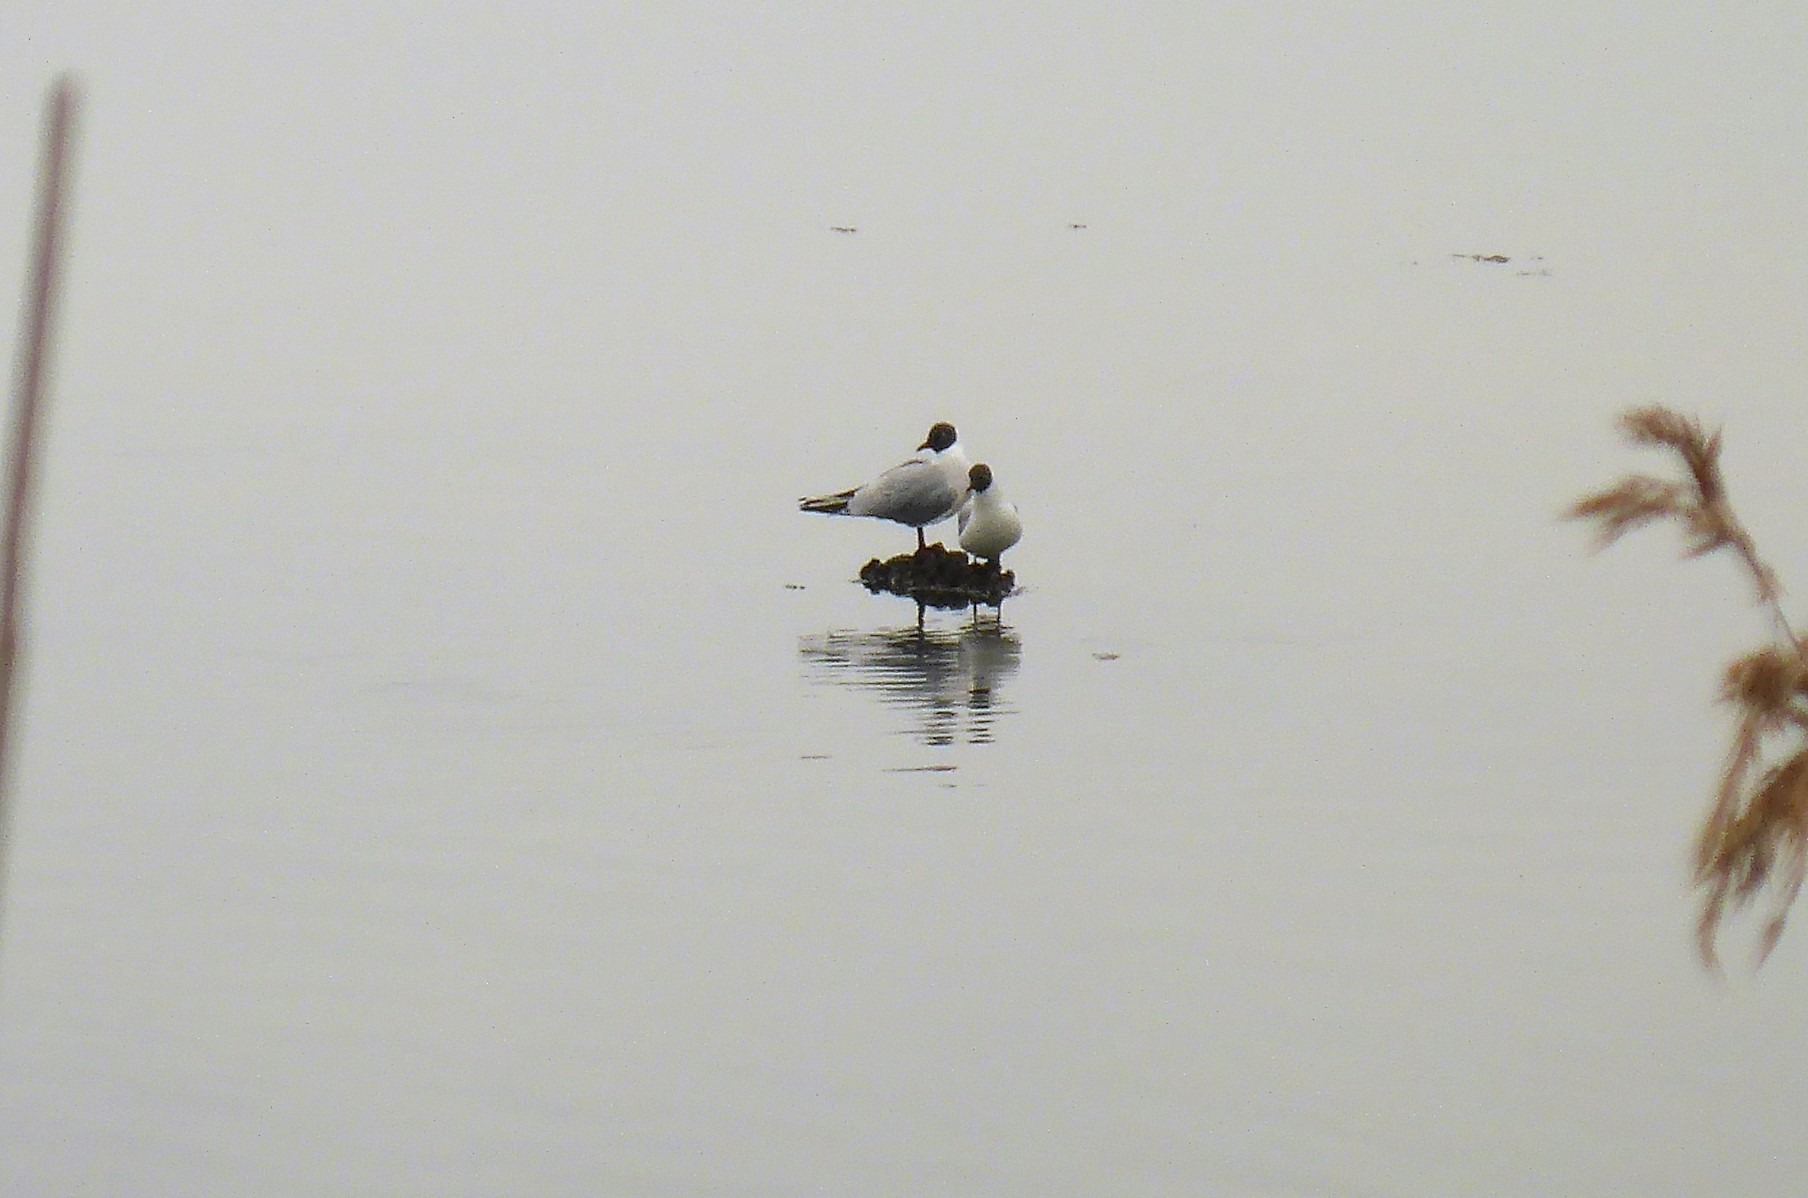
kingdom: Animalia
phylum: Chordata
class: Aves
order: Charadriiformes
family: Laridae
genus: Chroicocephalus
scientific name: Chroicocephalus ridibundus
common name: Hættemåge
